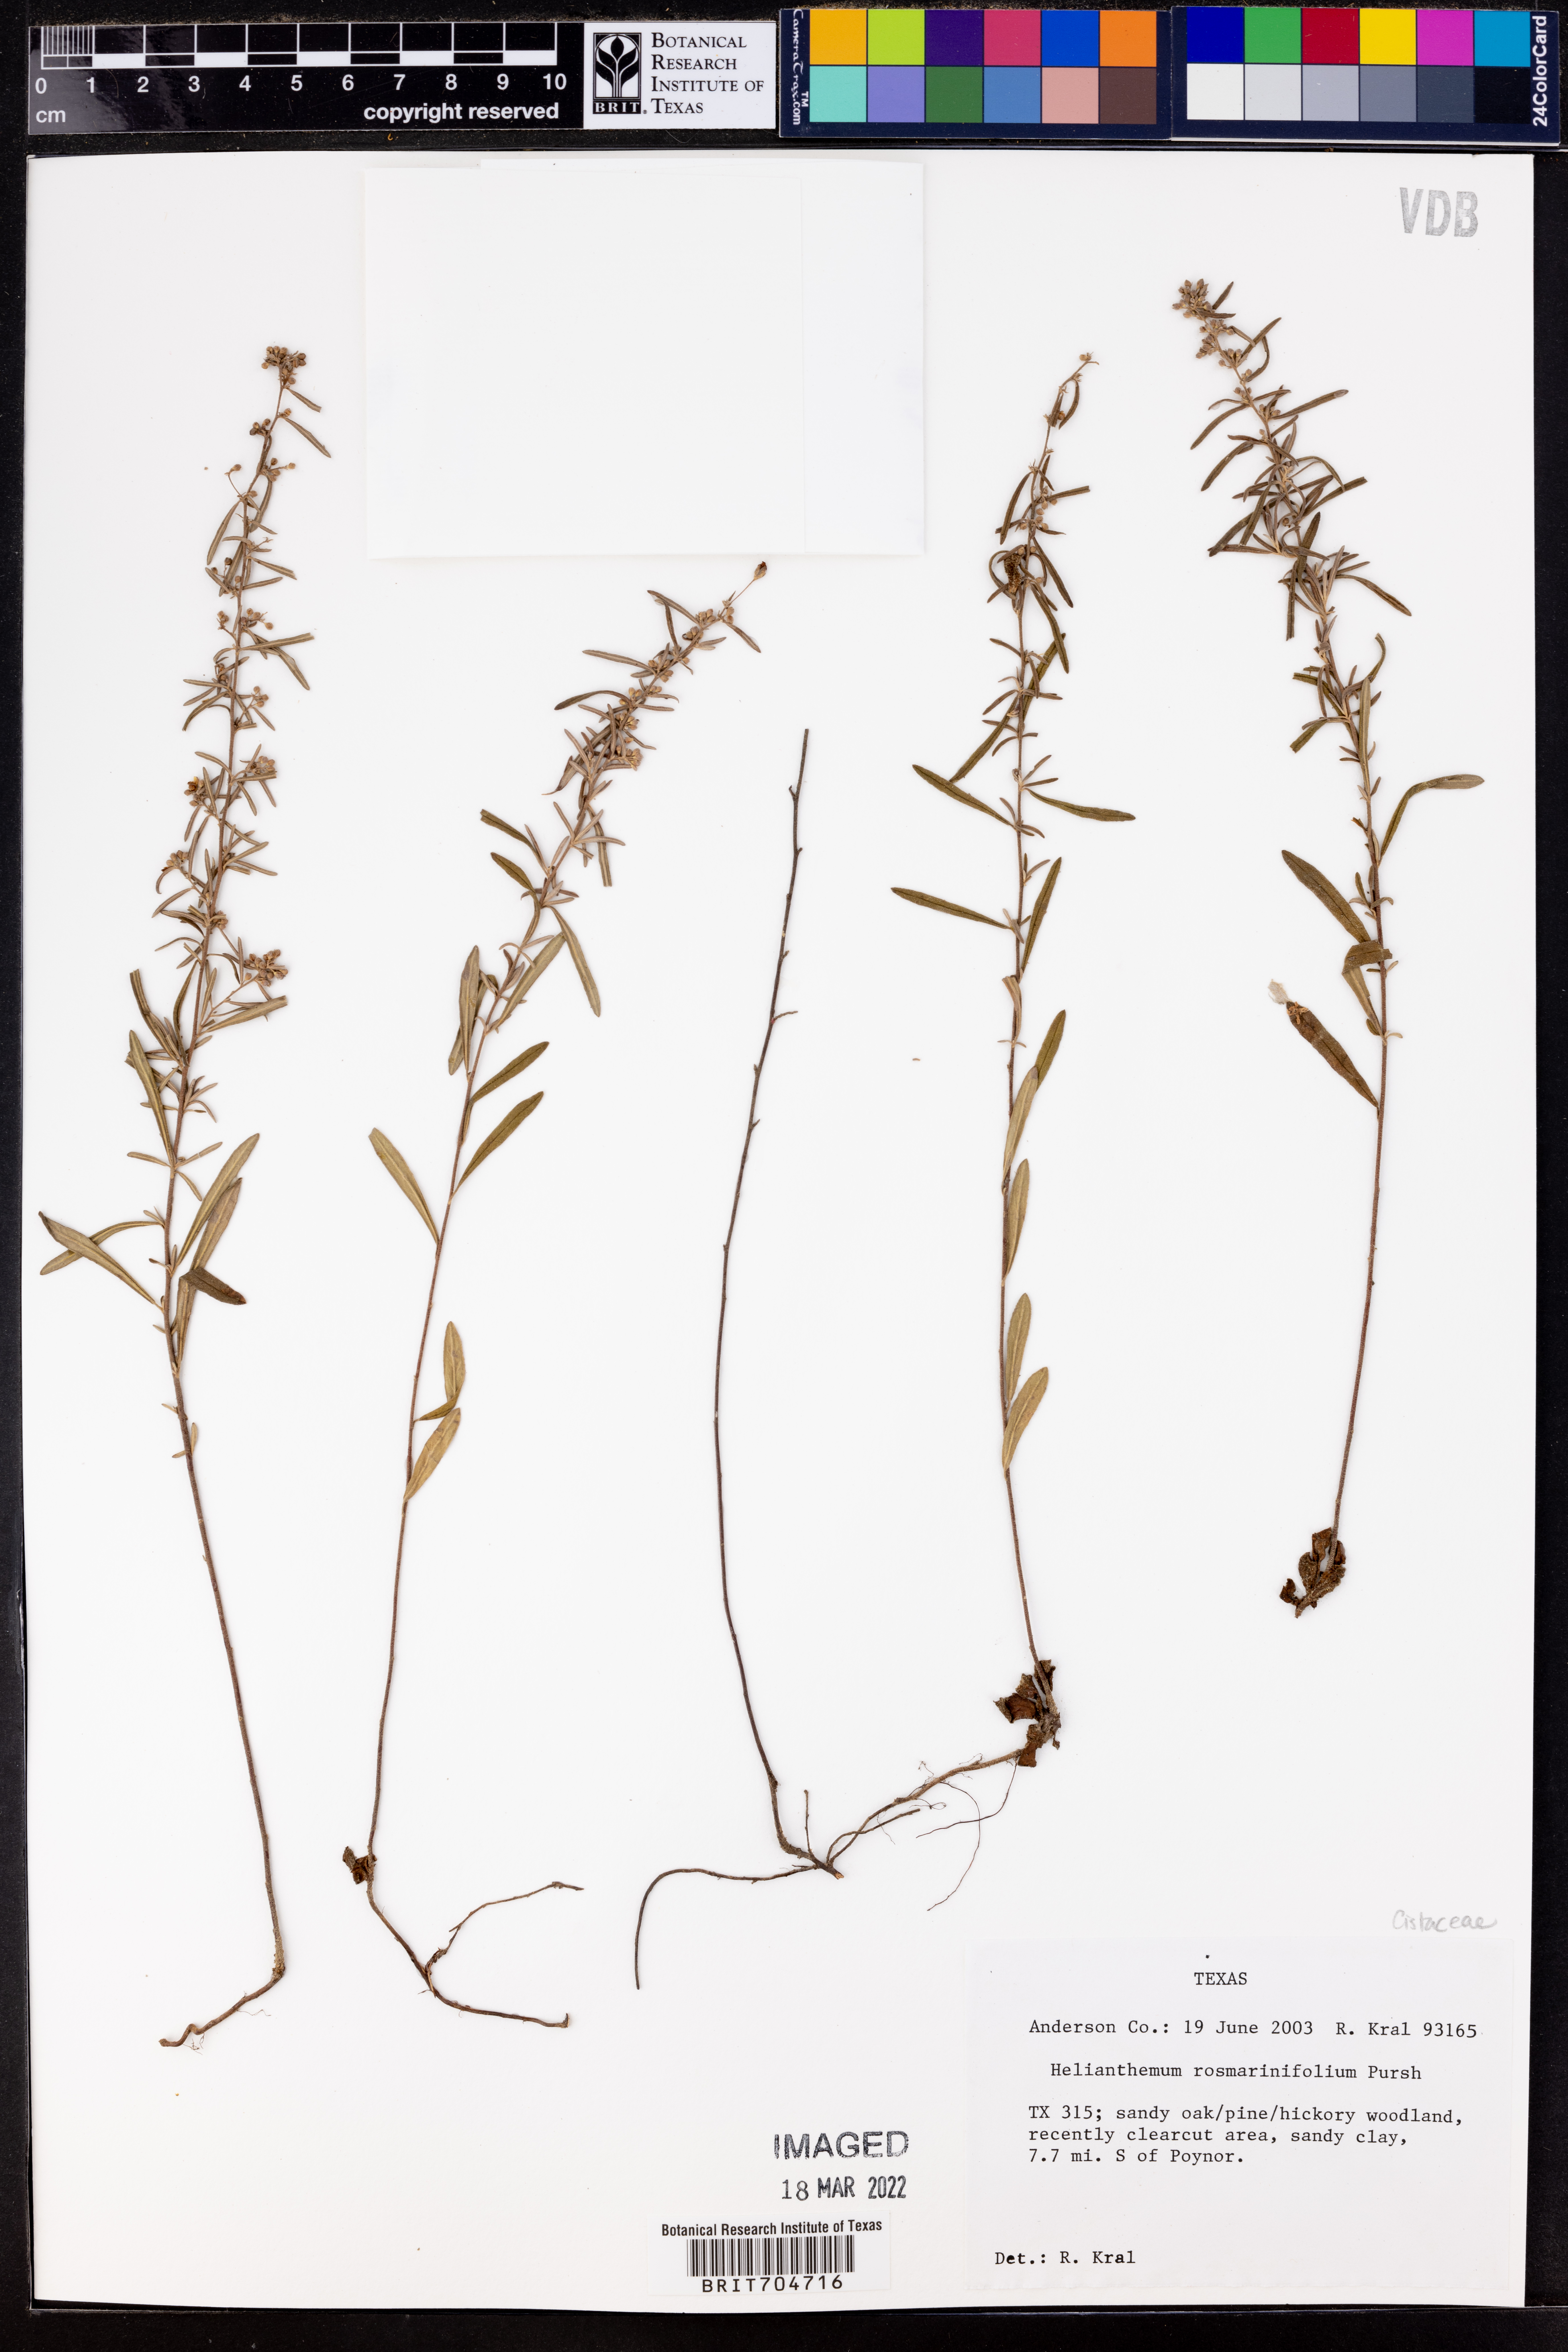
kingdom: Plantae
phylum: Tracheophyta
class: Magnoliopsida
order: Malvales
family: Cistaceae
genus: Crocanthemum
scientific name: Crocanthemum rosmarinifolium
